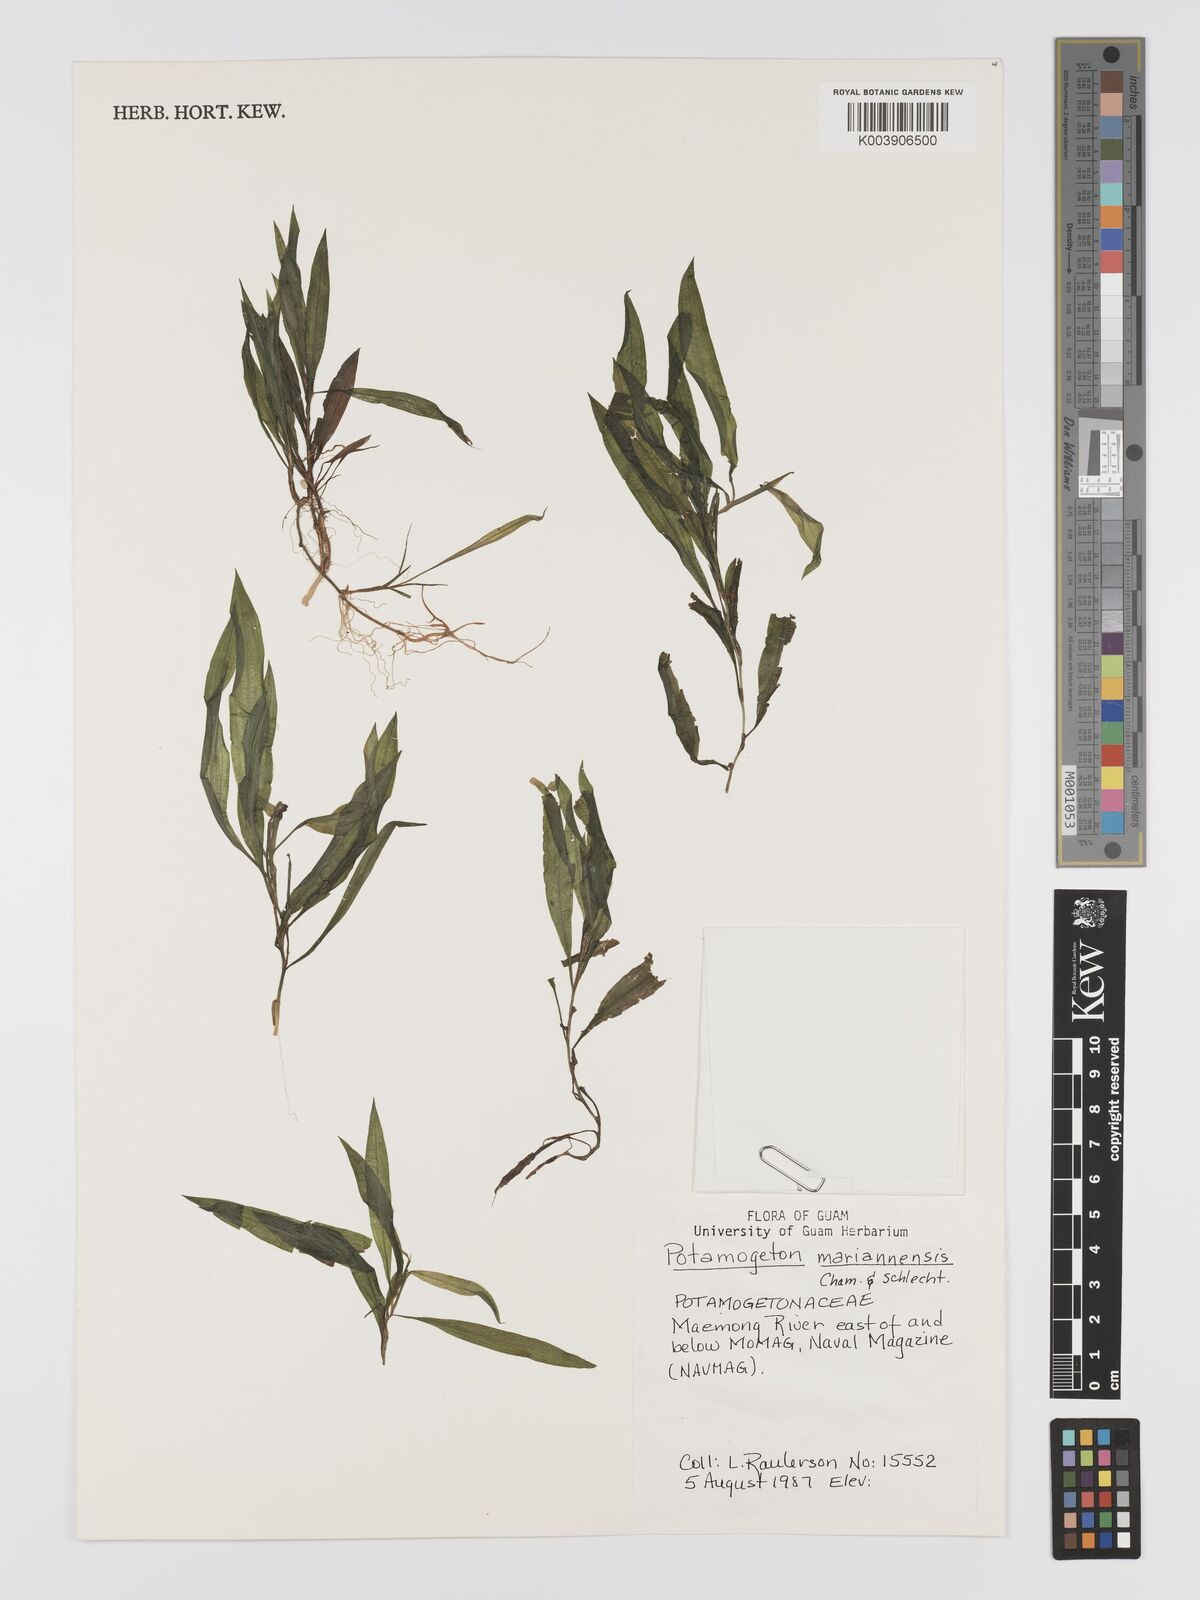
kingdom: Plantae
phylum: Tracheophyta
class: Liliopsida
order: Alismatales
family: Potamogetonaceae
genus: Potamogeton
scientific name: Potamogeton nodosus
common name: Loddon pondweed
